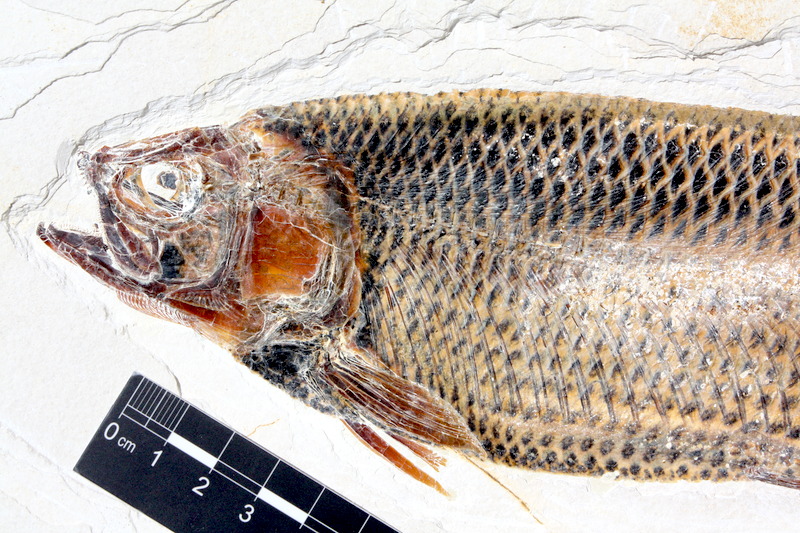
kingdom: Animalia
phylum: Chordata
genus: Thrissops
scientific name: Thrissops formosus
